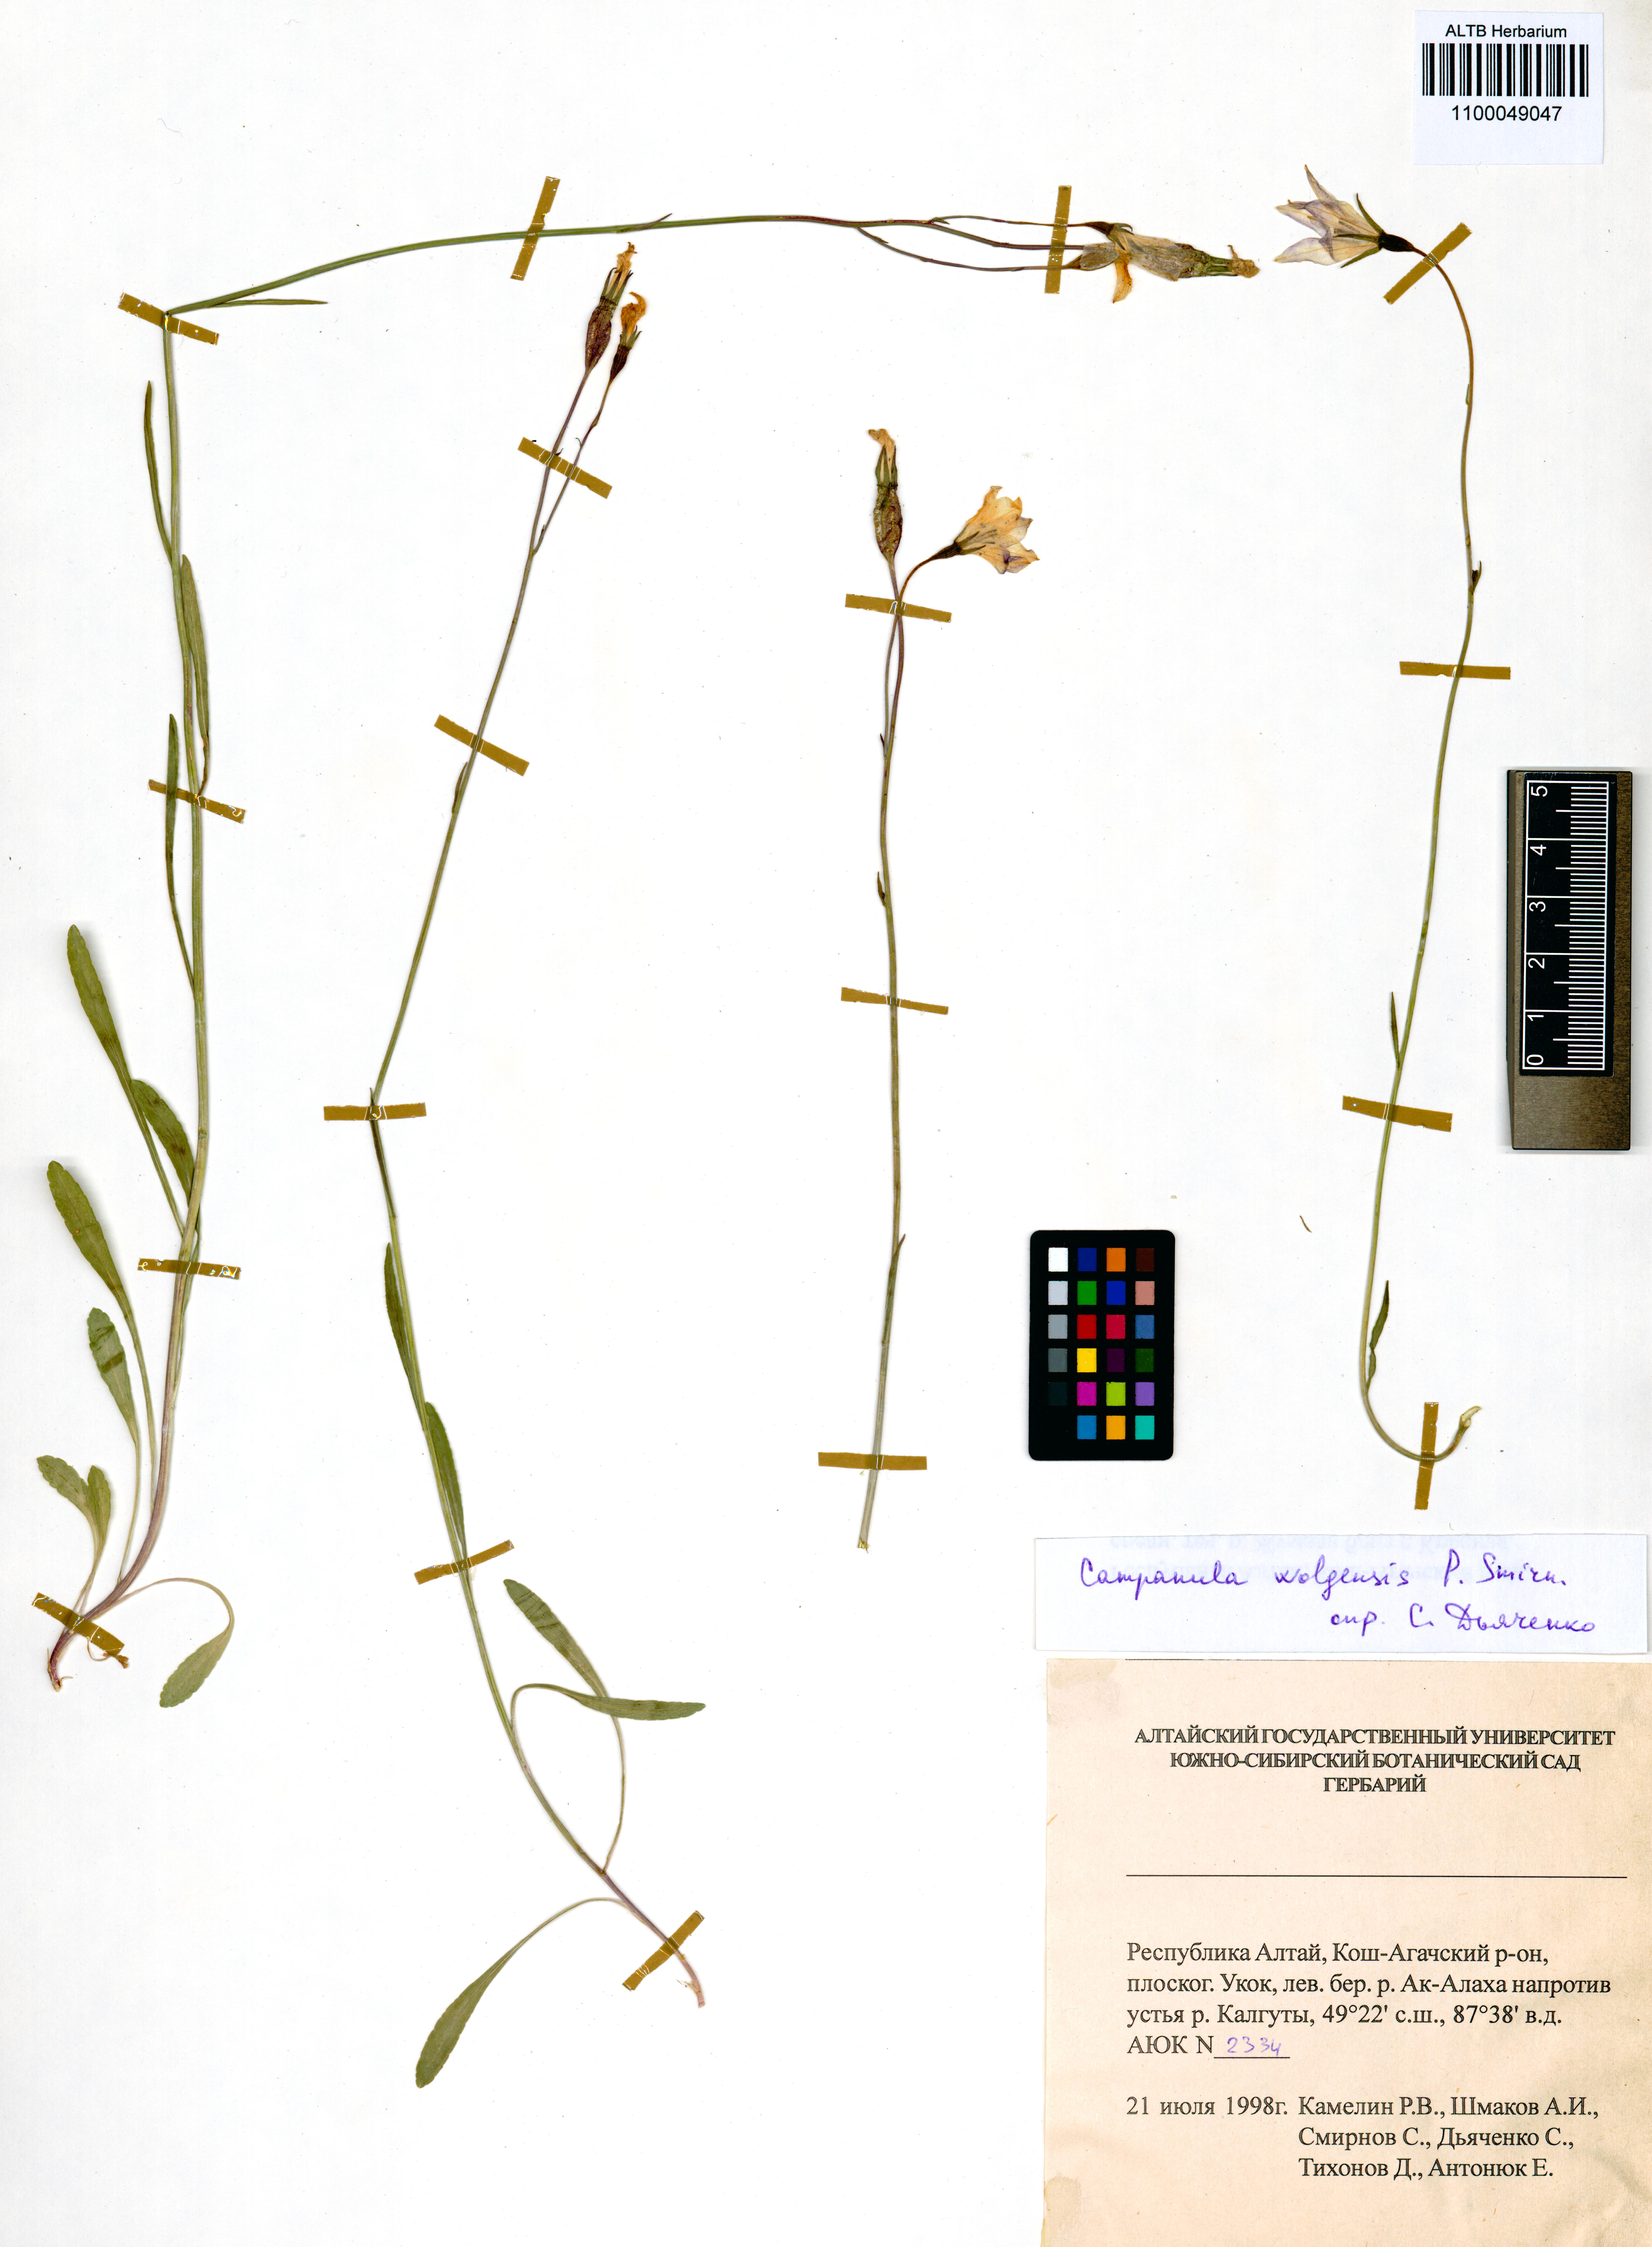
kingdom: Plantae
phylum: Tracheophyta
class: Magnoliopsida
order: Asterales
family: Campanulaceae
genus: Campanula
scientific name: Campanula stevenii
